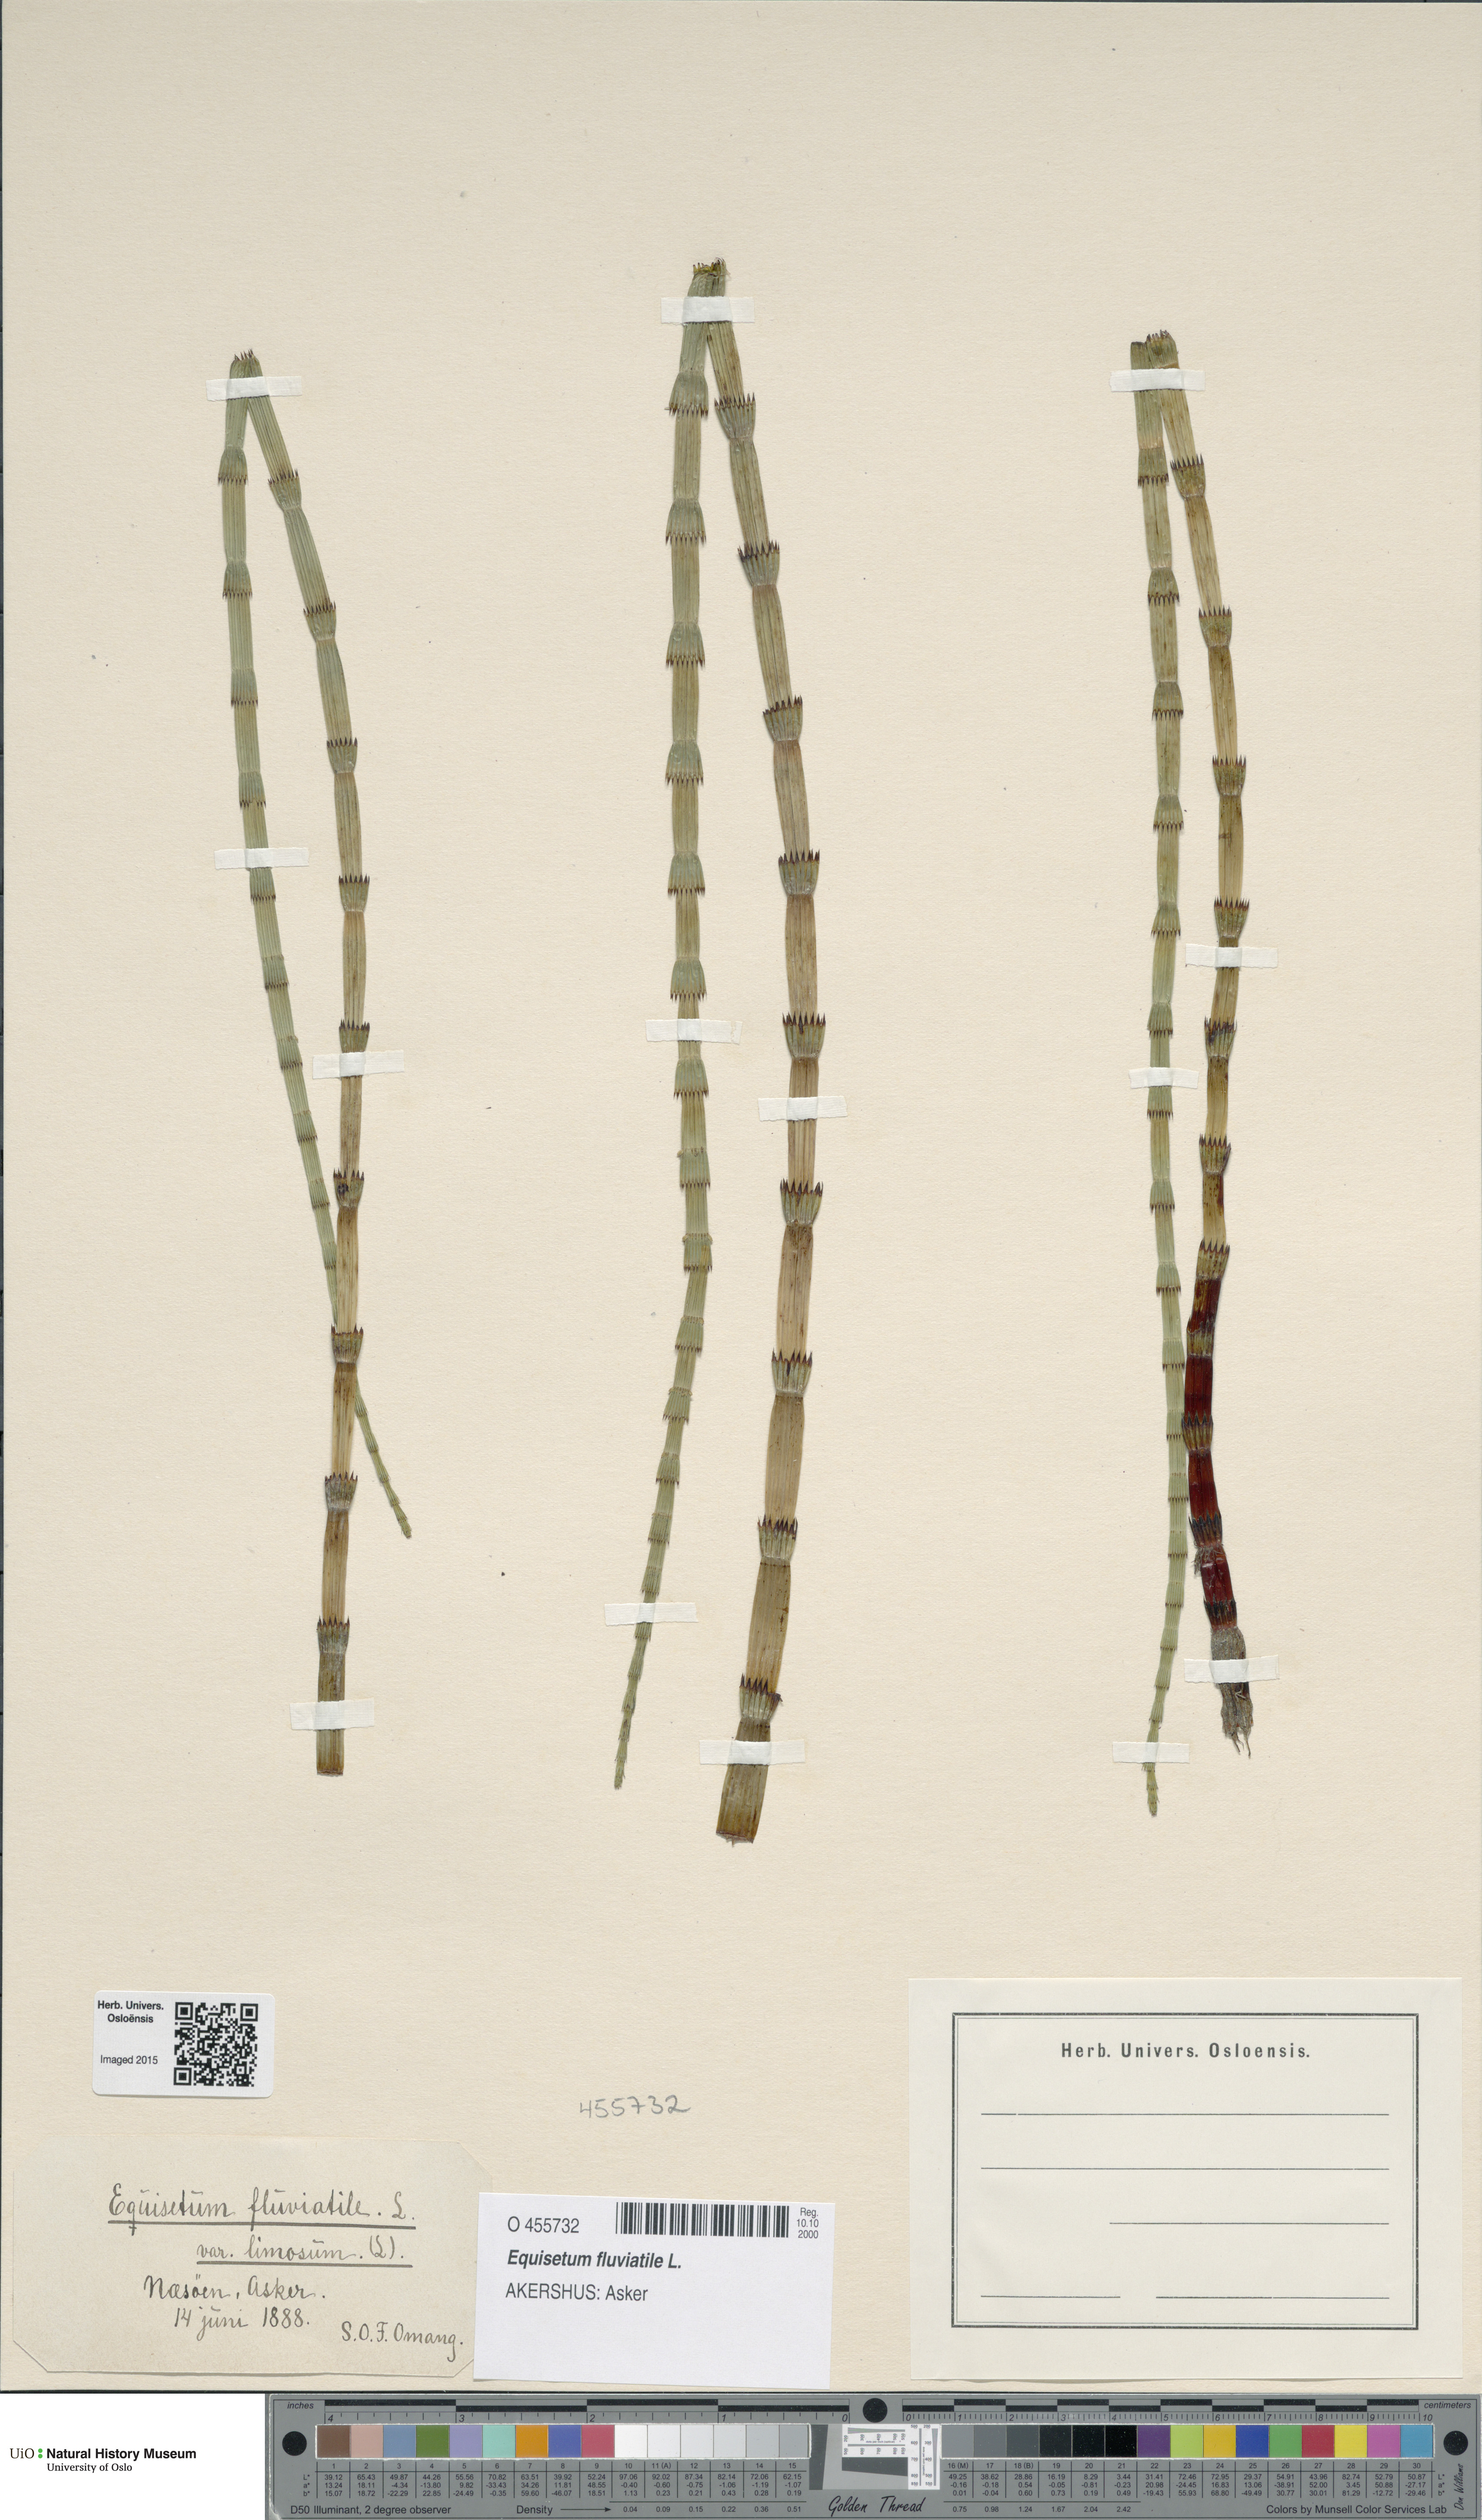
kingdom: Plantae
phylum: Tracheophyta
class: Polypodiopsida
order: Equisetales
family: Equisetaceae
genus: Equisetum
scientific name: Equisetum fluviatile
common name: Water horsetail
